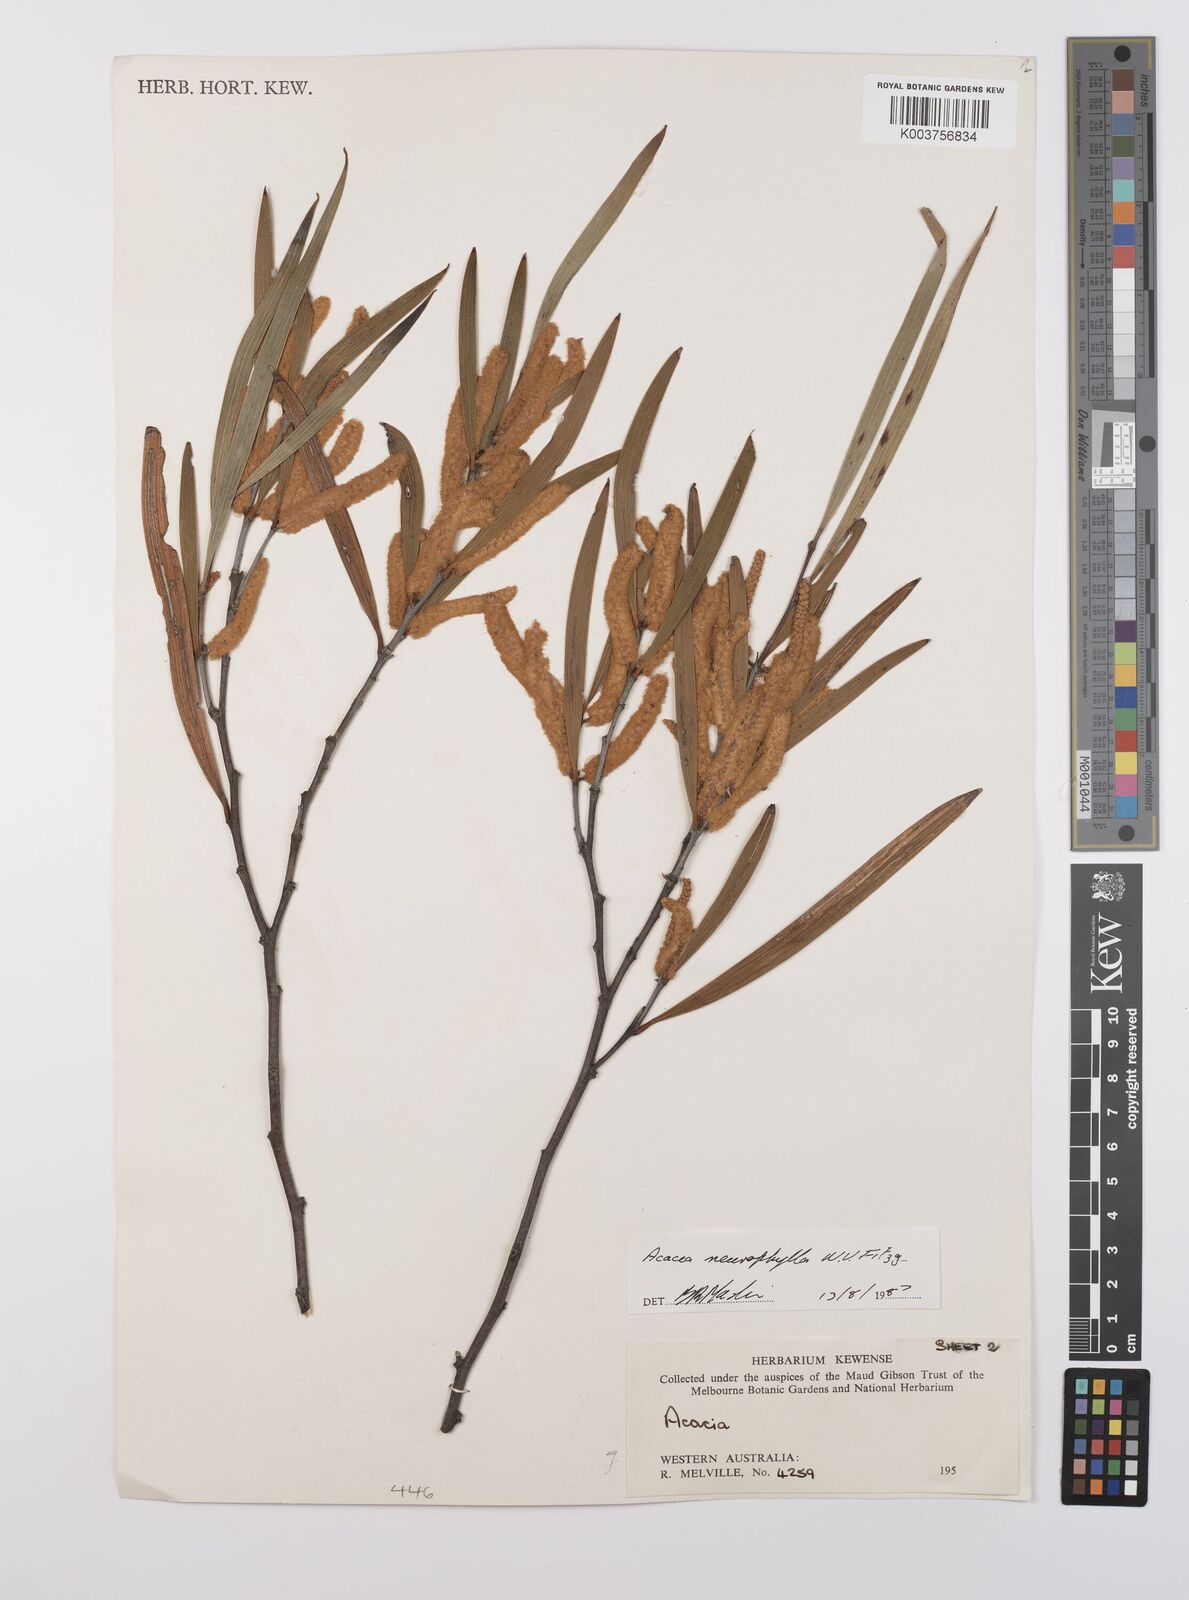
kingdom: Plantae
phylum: Tracheophyta
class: Magnoliopsida
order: Fabales
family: Fabaceae
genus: Acacia
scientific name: Acacia neurophylla
